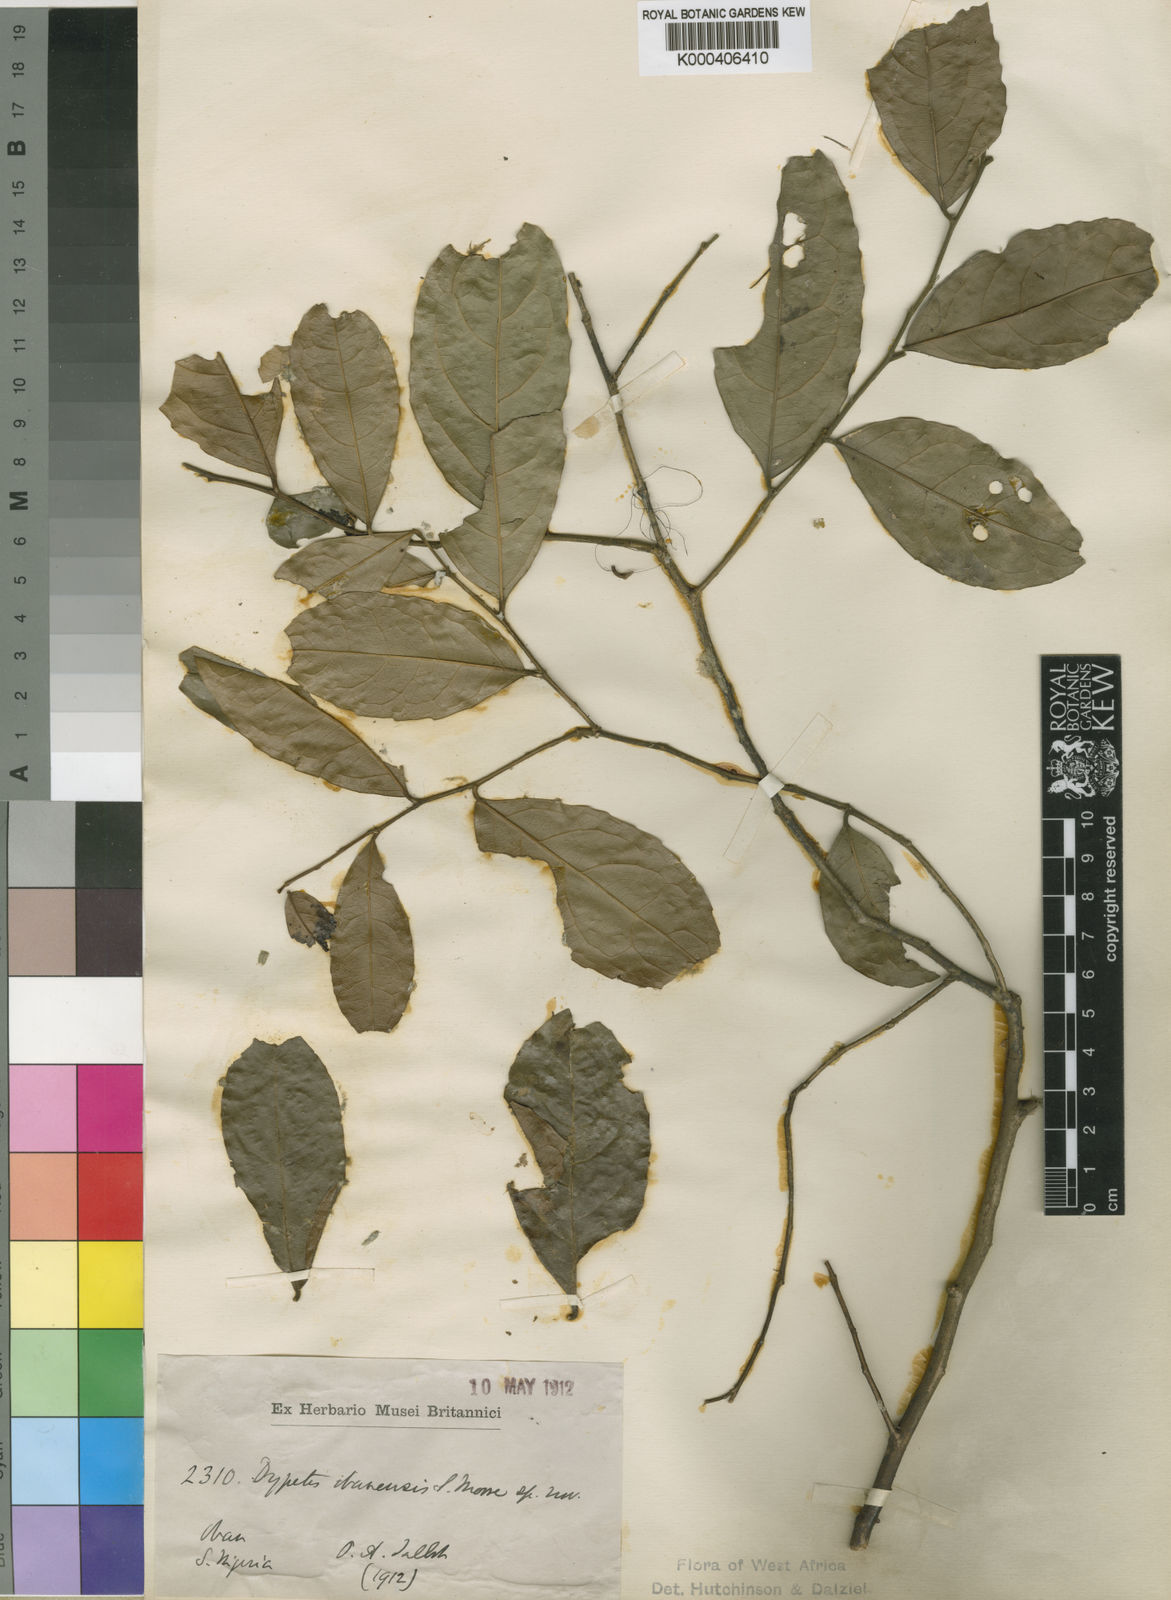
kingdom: Plantae
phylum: Tracheophyta
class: Magnoliopsida
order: Malpighiales
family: Putranjivaceae
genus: Drypetes
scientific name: Drypetes obanensis
